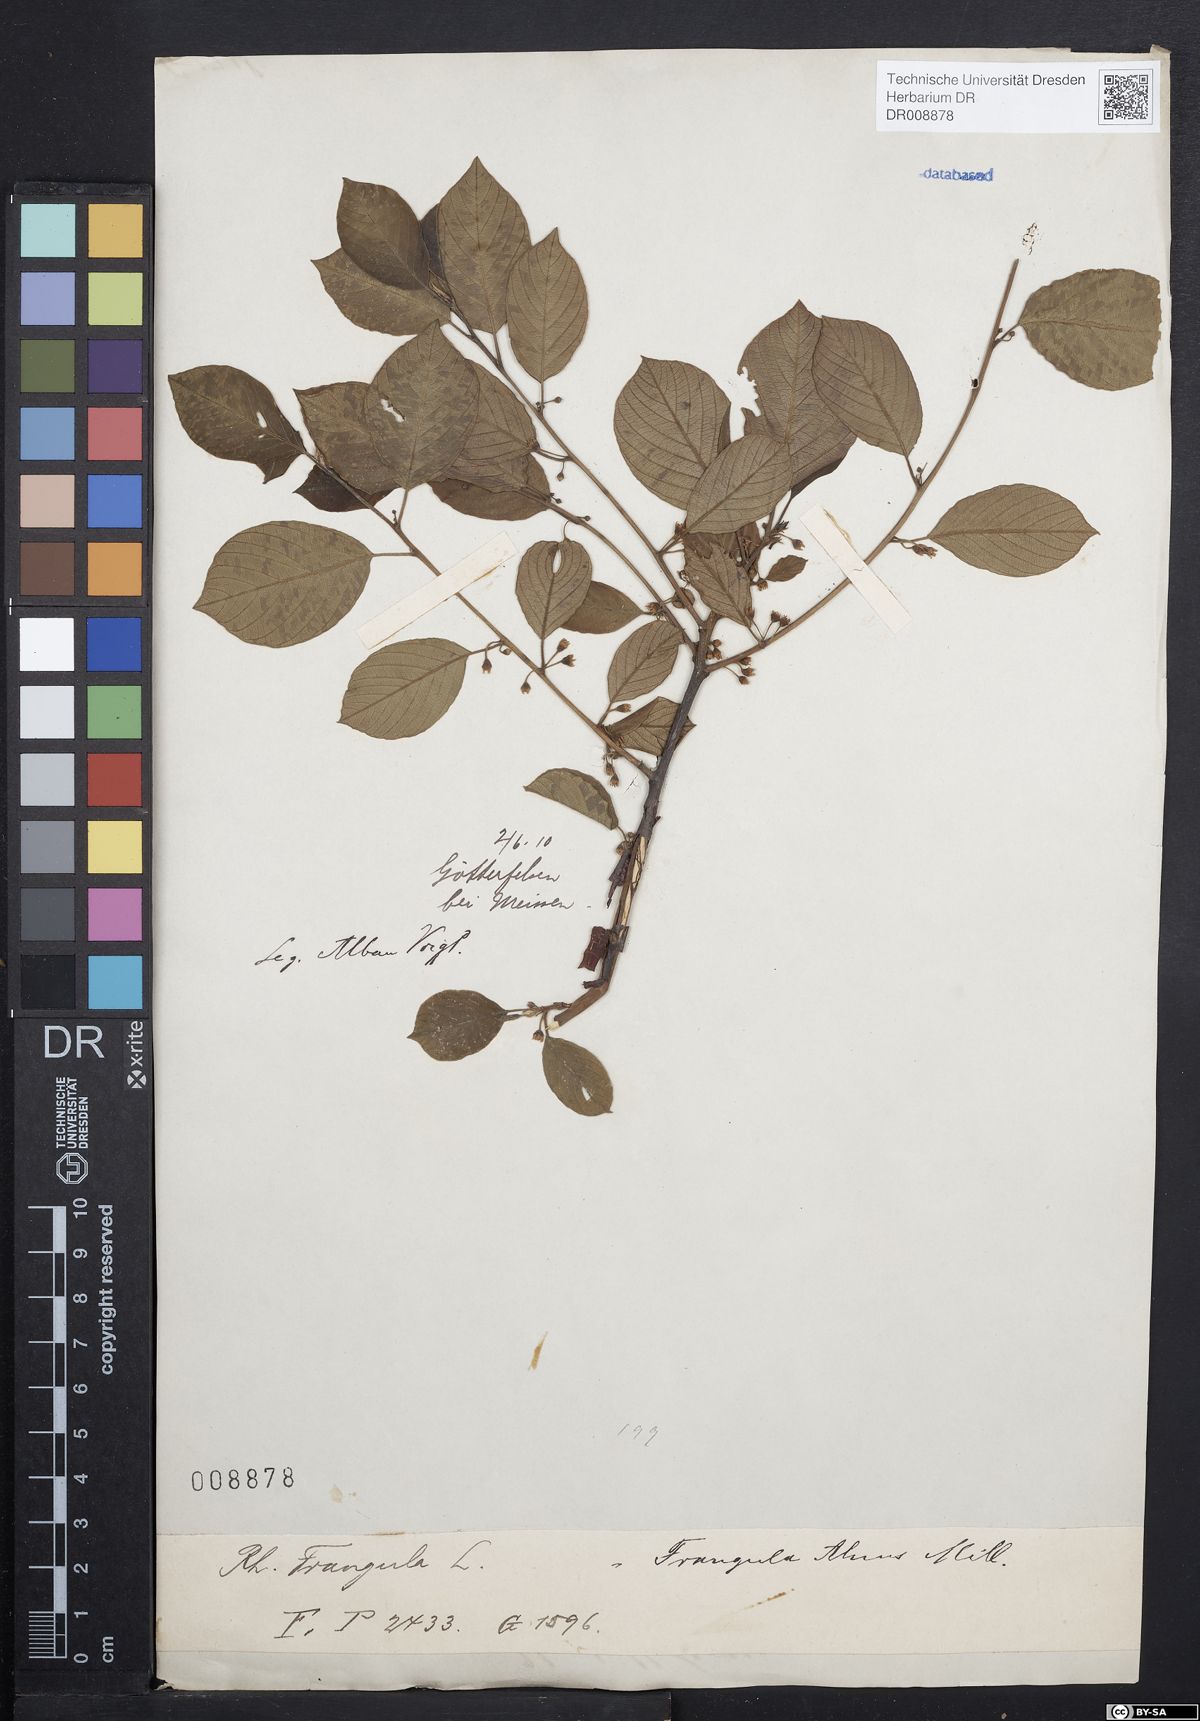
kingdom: Plantae
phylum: Tracheophyta
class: Magnoliopsida
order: Rosales
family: Rhamnaceae
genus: Frangula
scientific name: Frangula alnus
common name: Alder buckthorn
